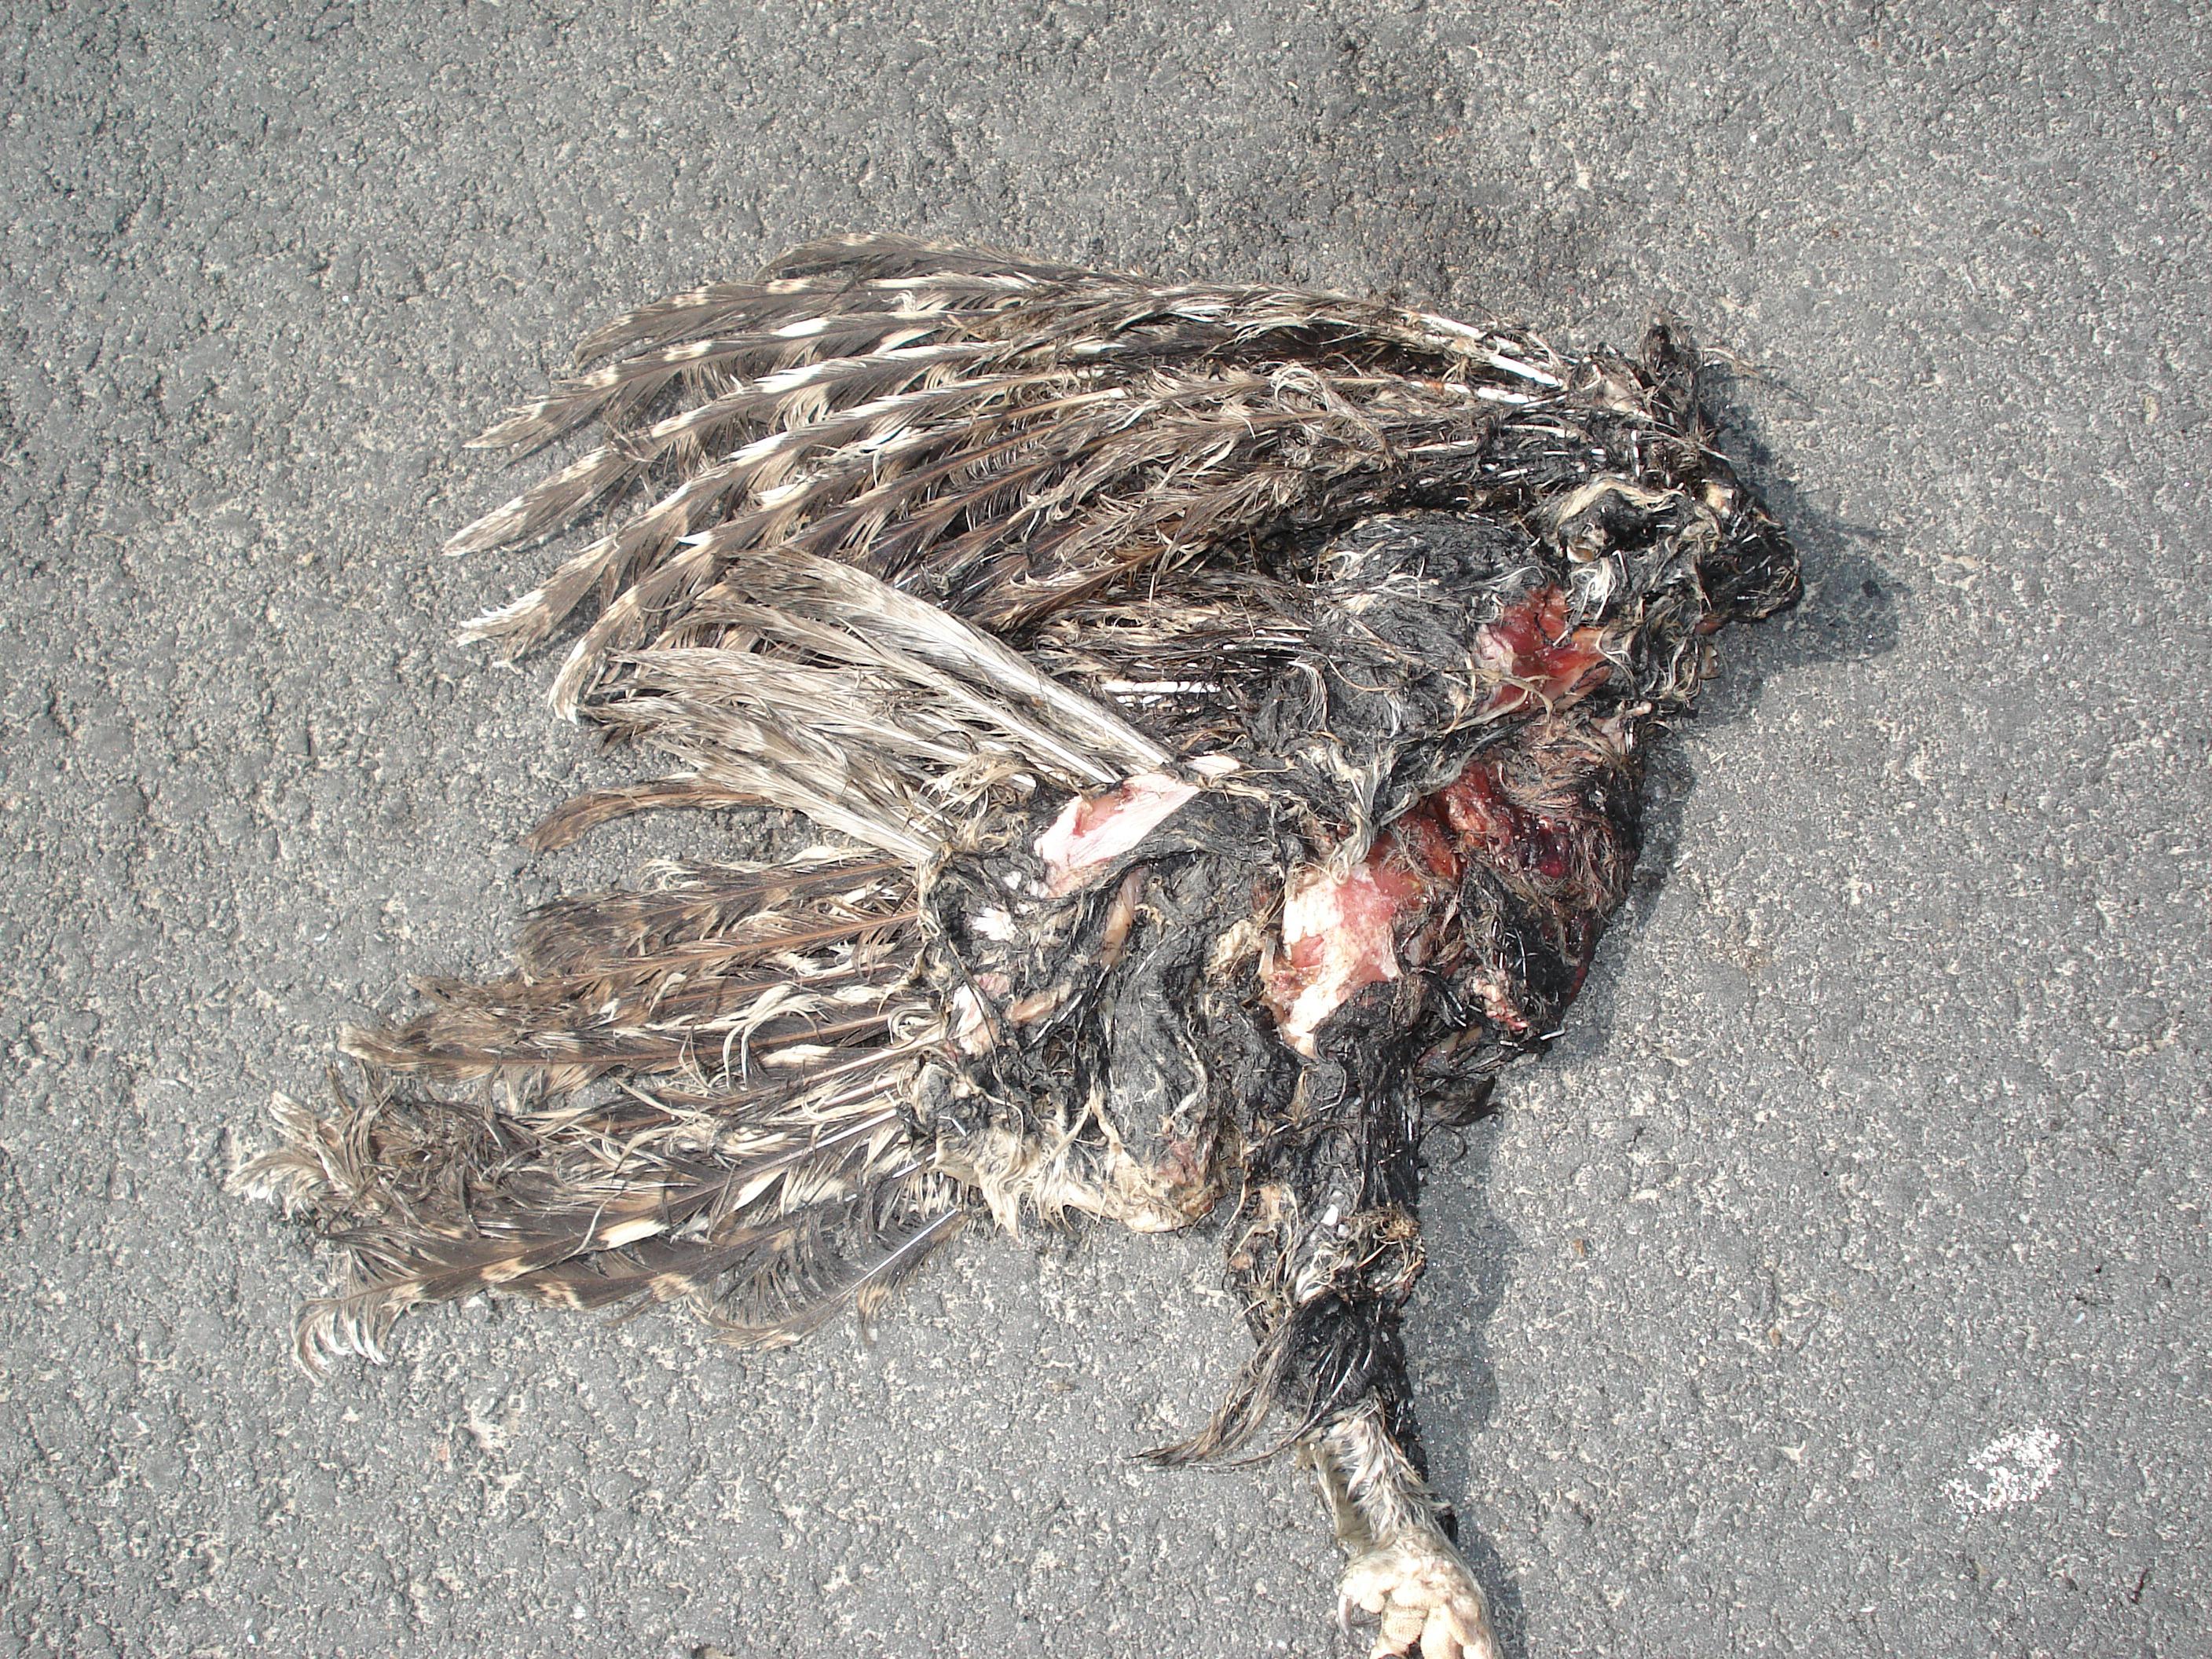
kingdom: Animalia
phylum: Chordata
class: Aves
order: Strigiformes
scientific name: Strigiformes
